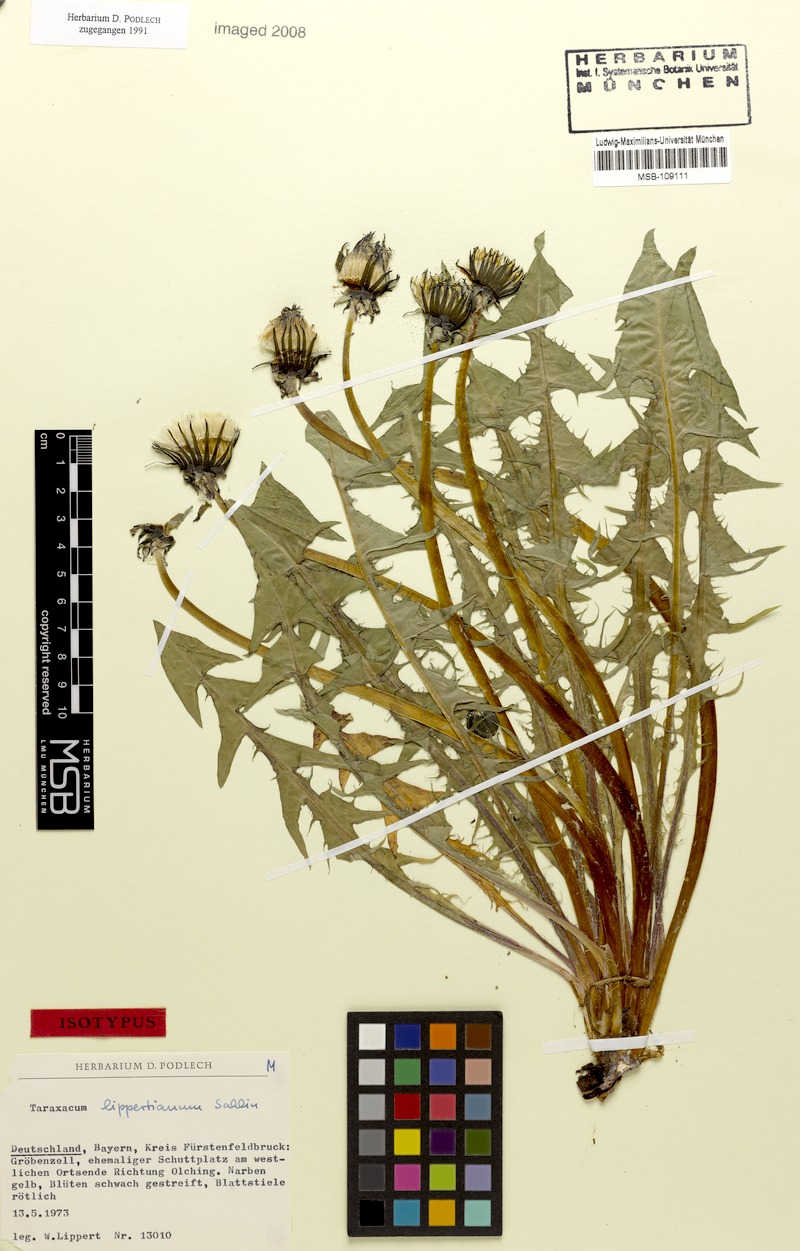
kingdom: Plantae
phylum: Tracheophyta
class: Magnoliopsida
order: Asterales
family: Asteraceae
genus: Taraxacum
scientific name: Taraxacum lippertianum
